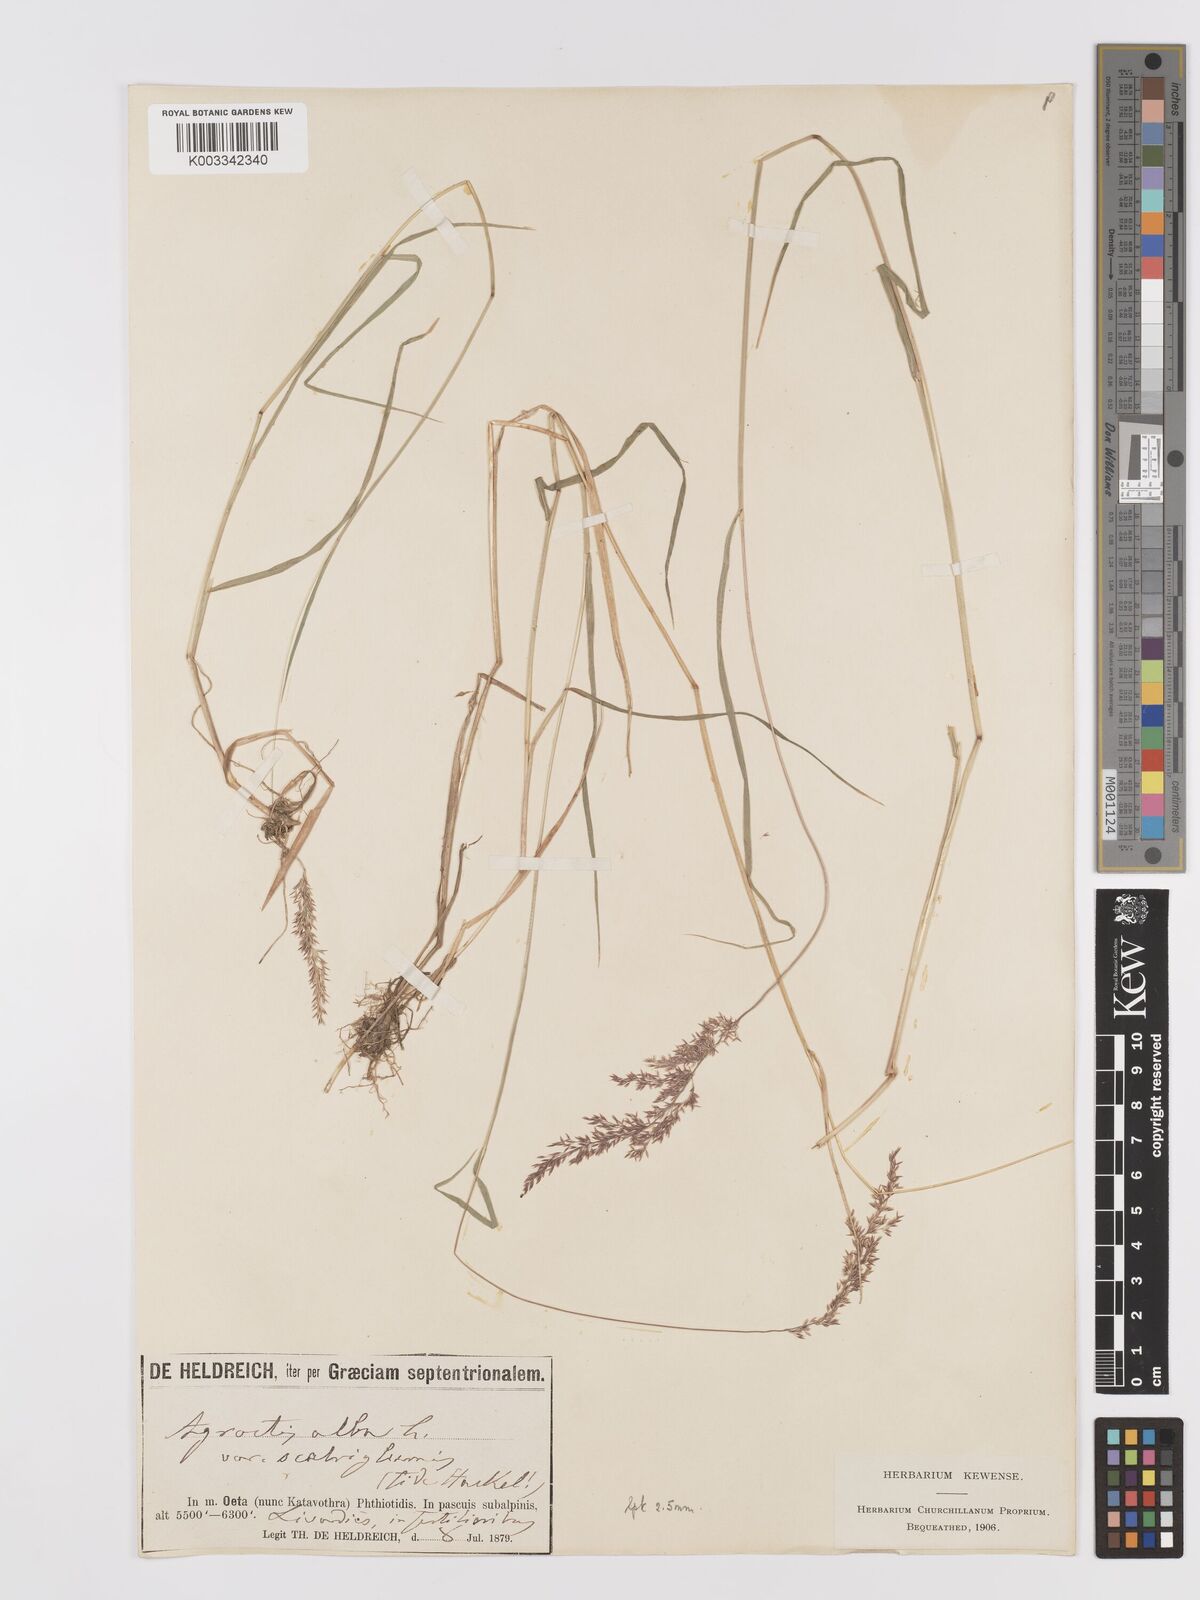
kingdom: Plantae
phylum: Tracheophyta
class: Liliopsida
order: Poales
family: Poaceae
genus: Agrostis
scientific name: Agrostis stolonifera
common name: Creeping bentgrass
